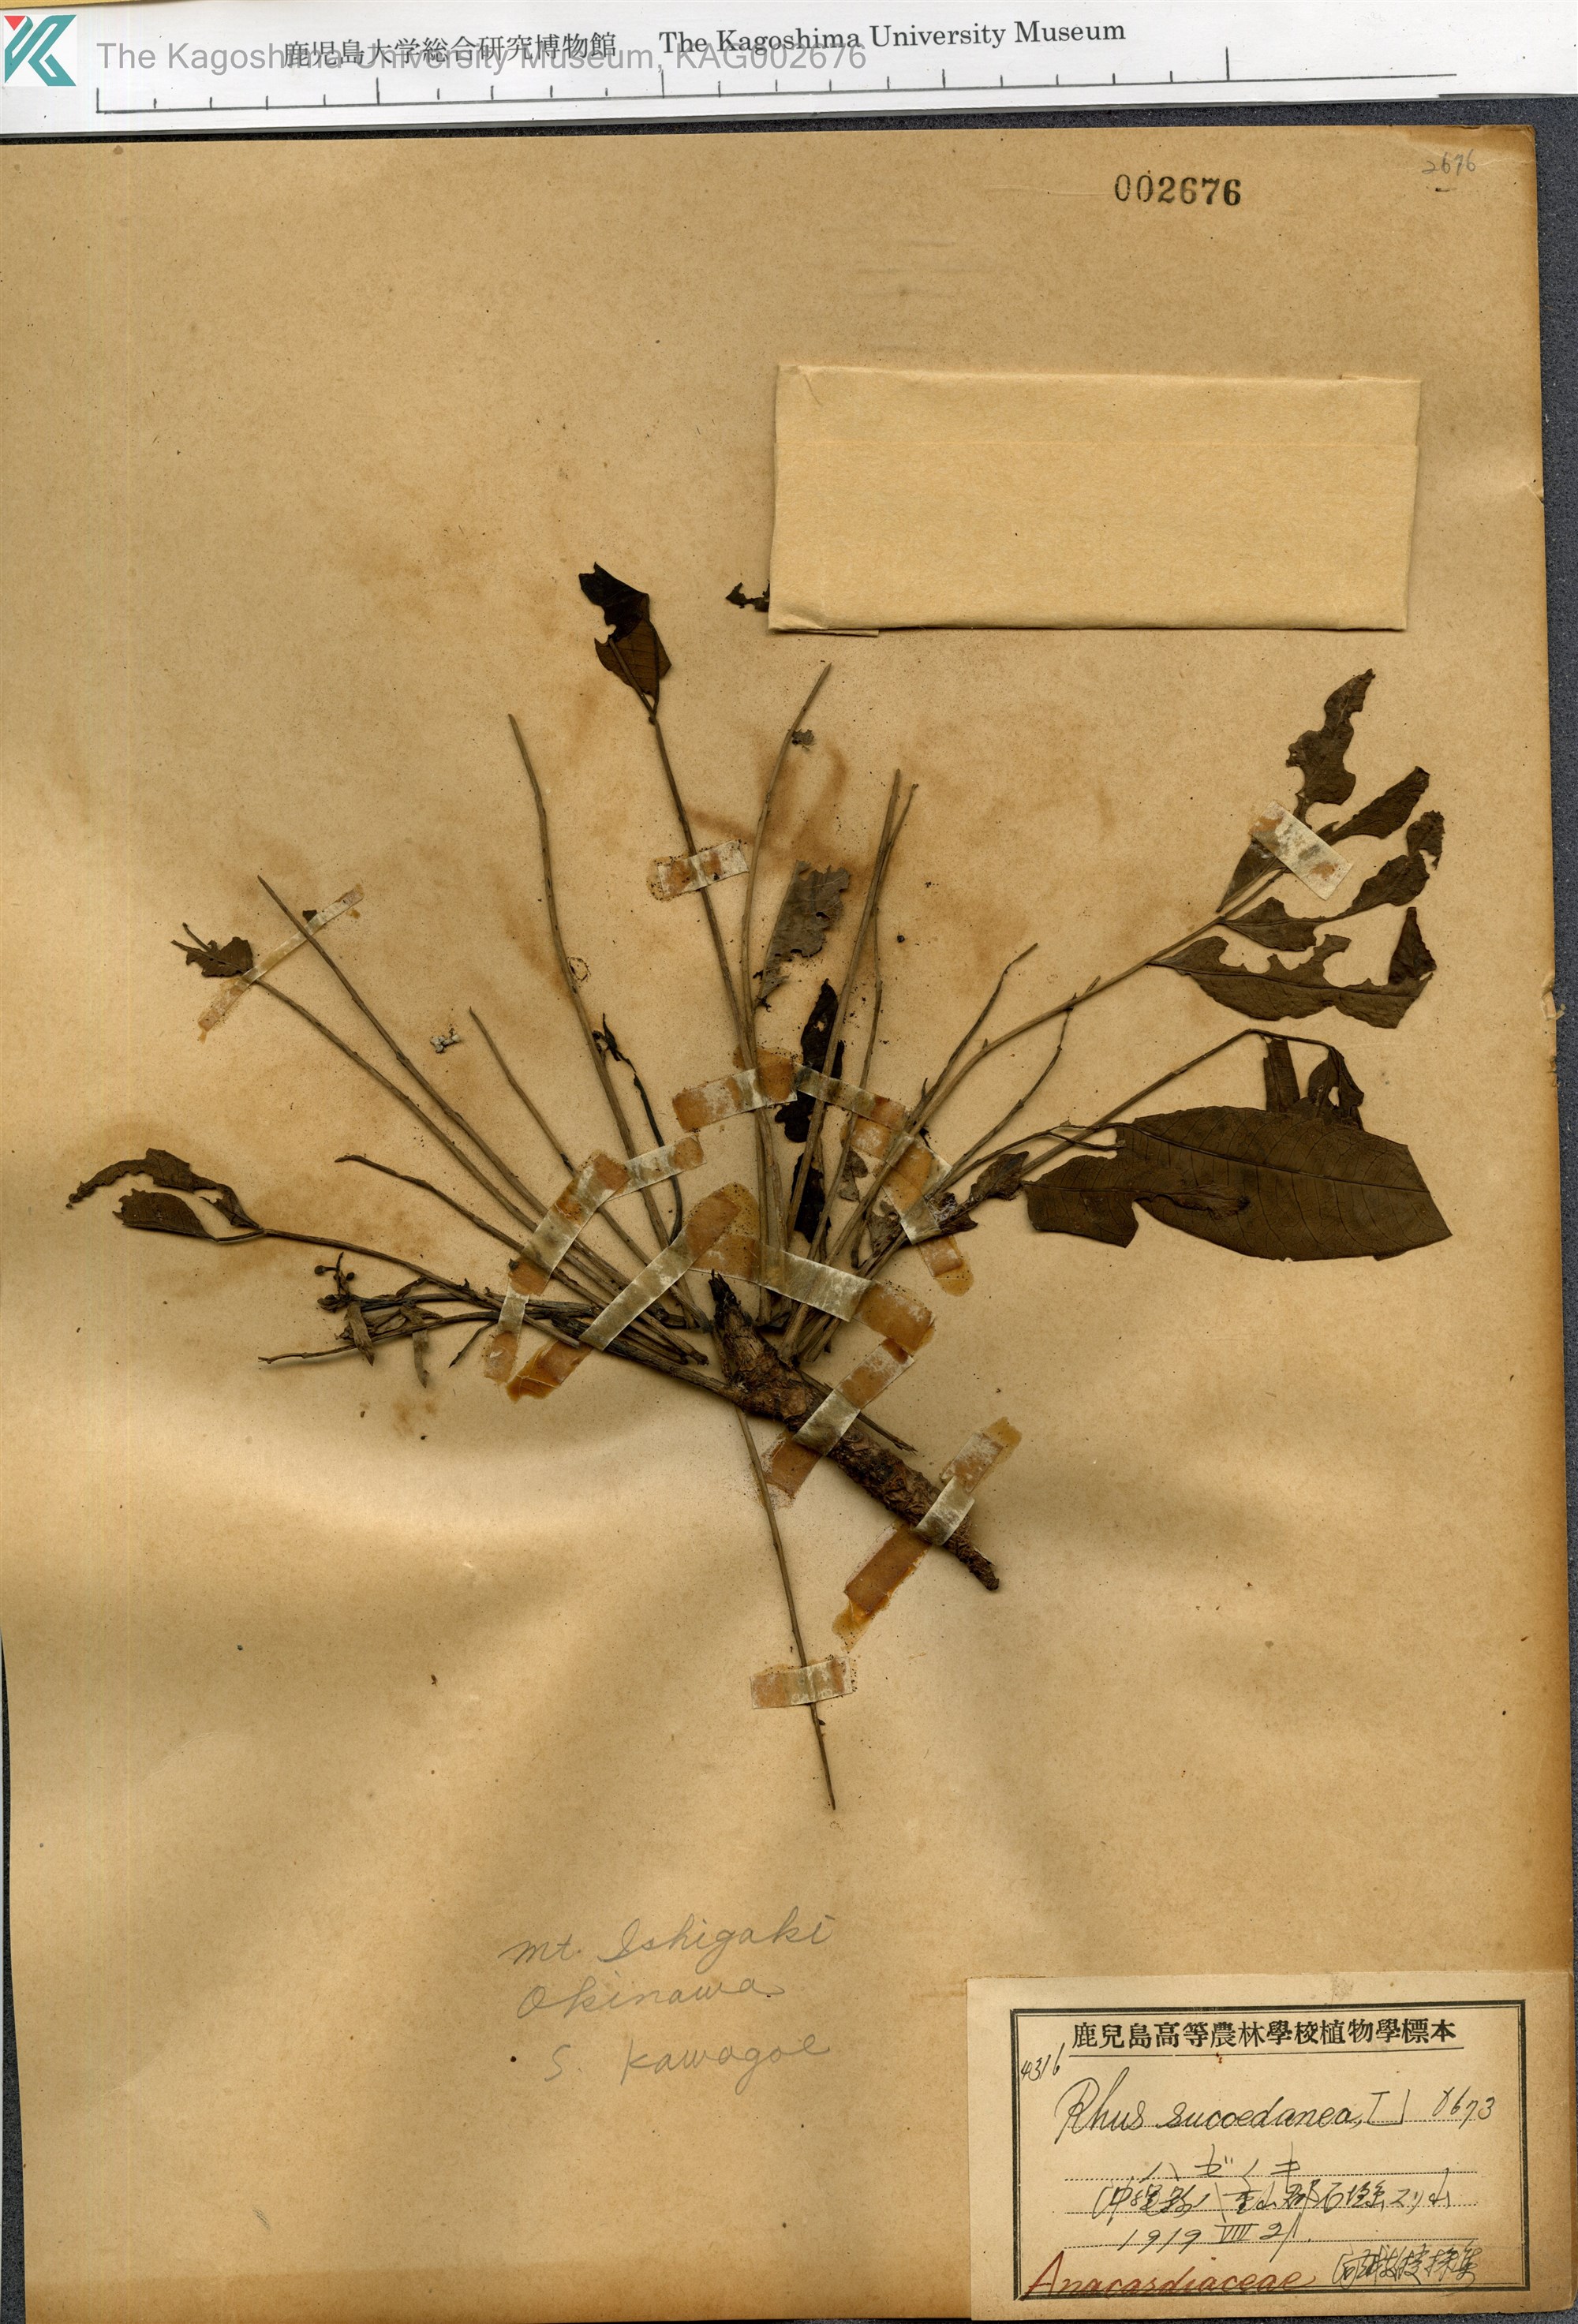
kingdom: Plantae
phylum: Tracheophyta
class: Magnoliopsida
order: Sapindales
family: Anacardiaceae
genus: Toxicodendron
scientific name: Toxicodendron succedaneum
